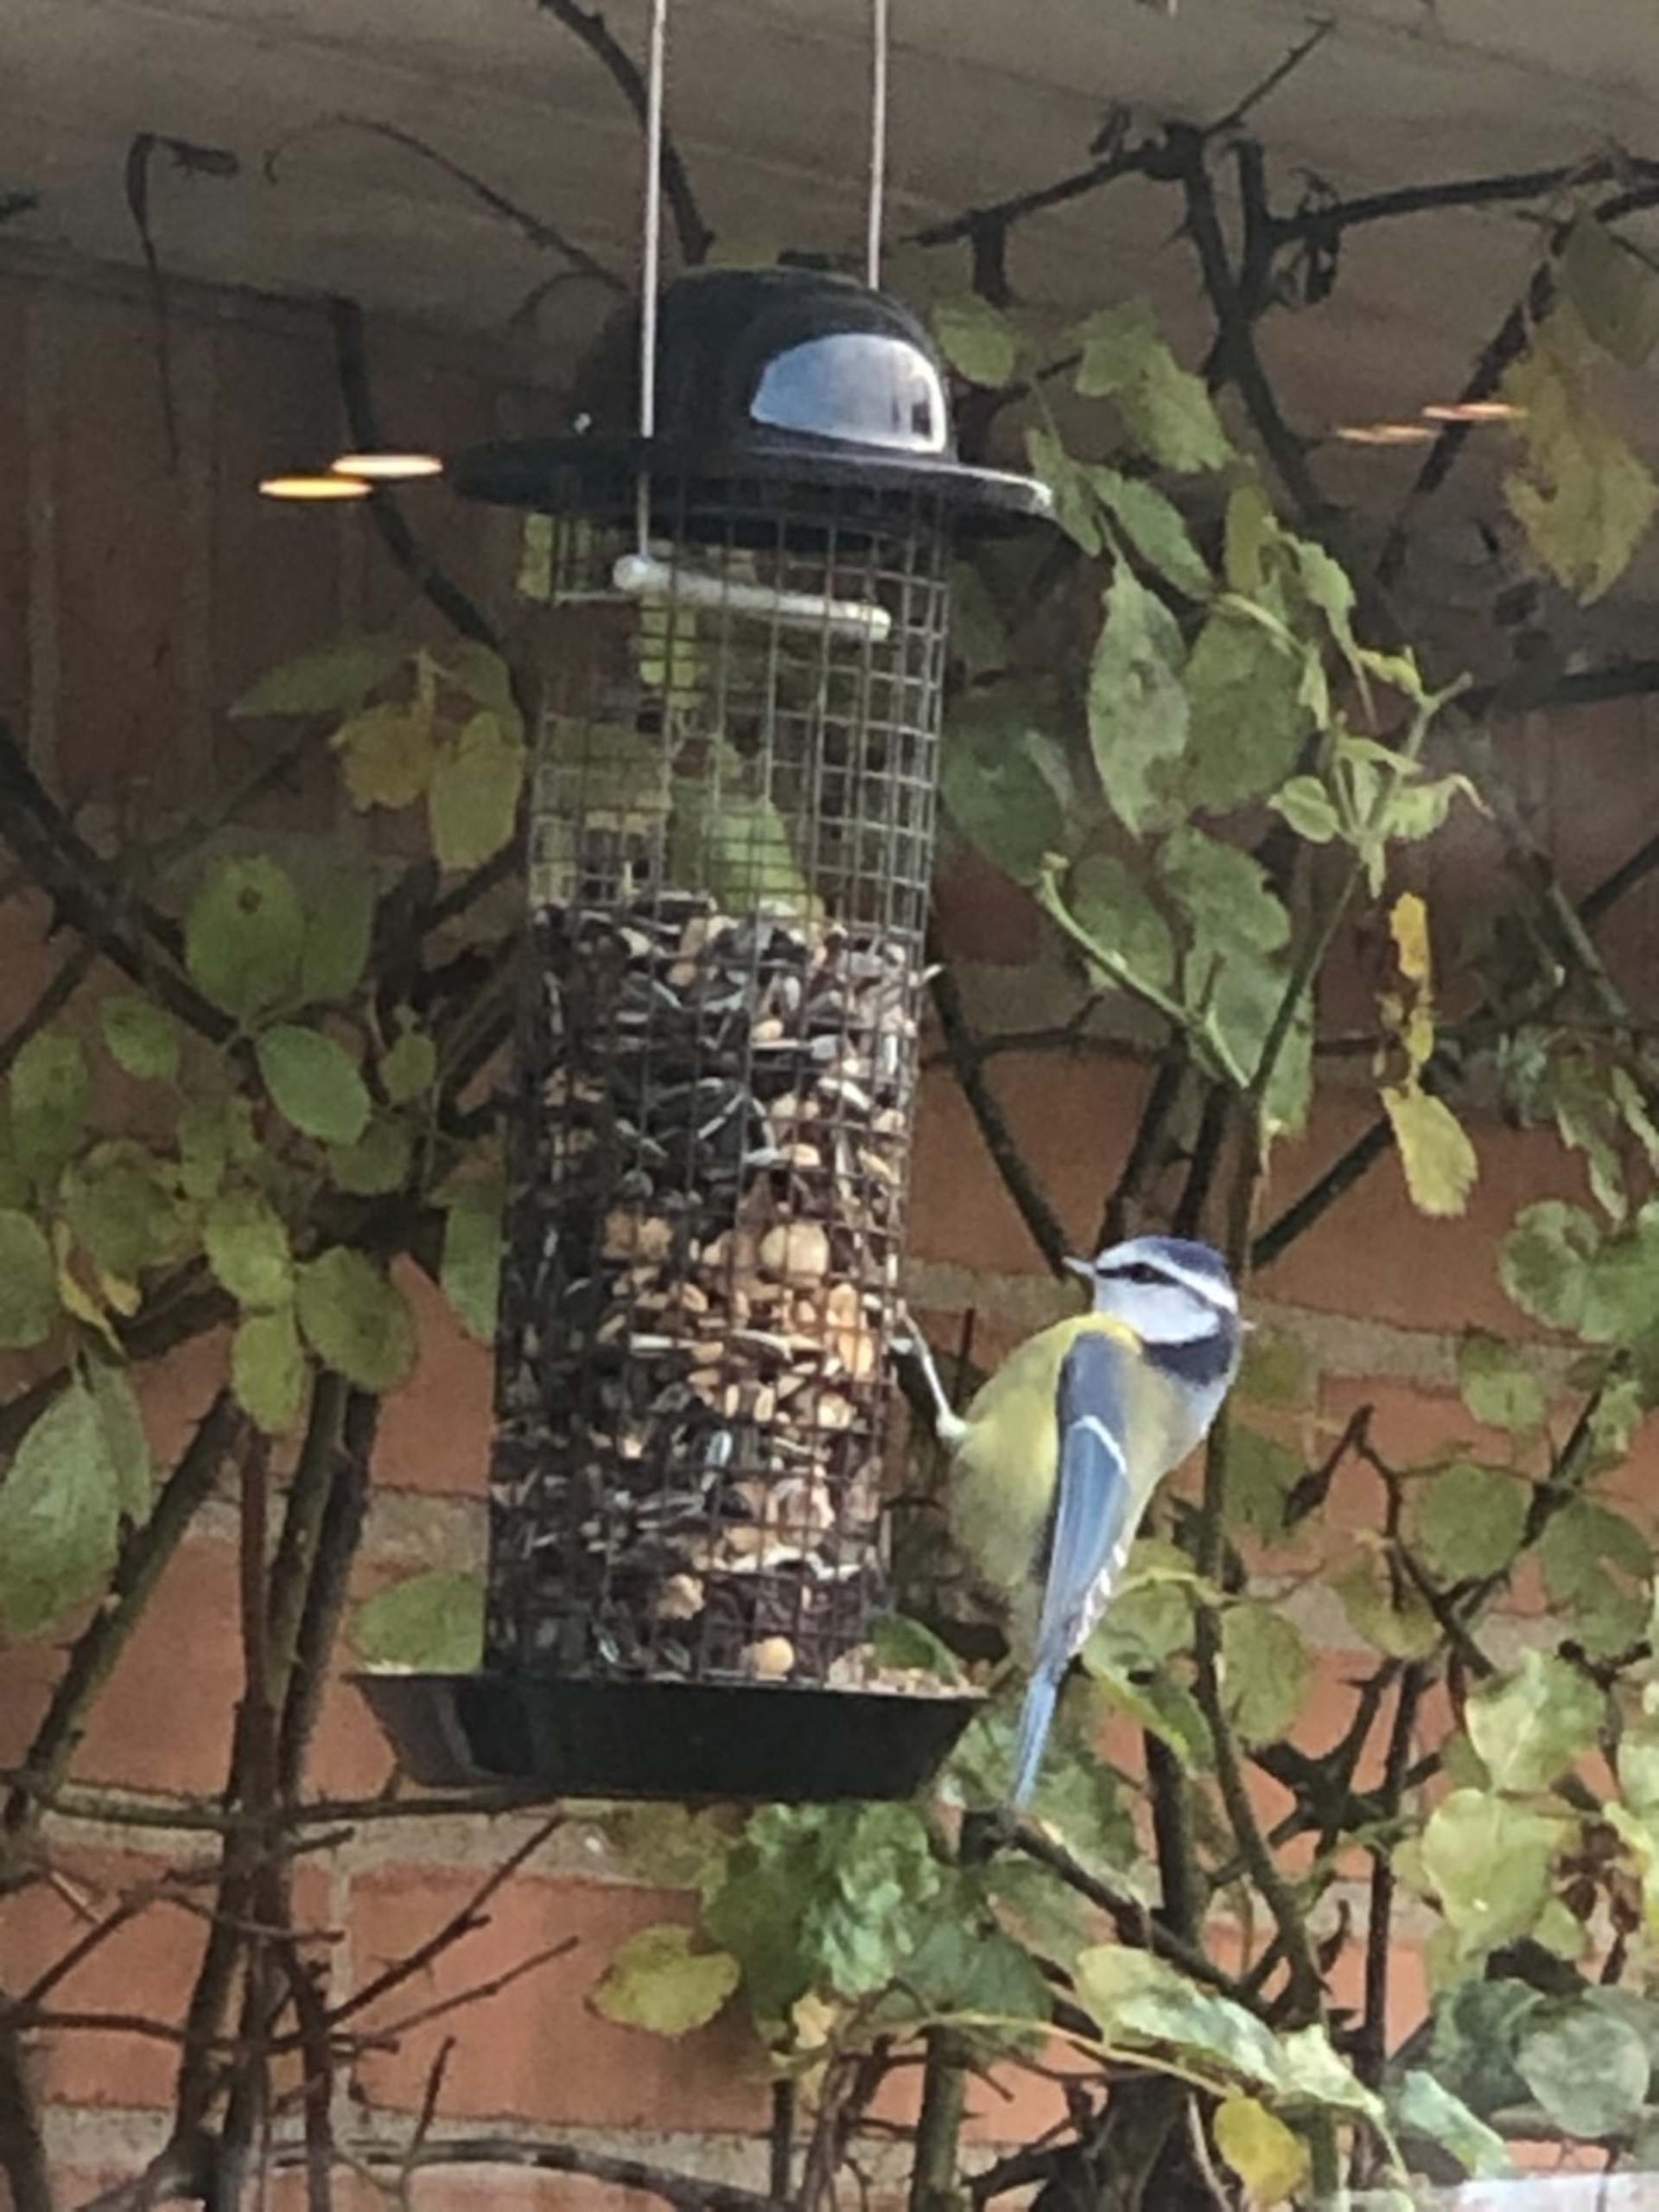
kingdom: Animalia
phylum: Chordata
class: Aves
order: Passeriformes
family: Paridae
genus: Cyanistes
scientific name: Cyanistes caeruleus
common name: Blåmejse
